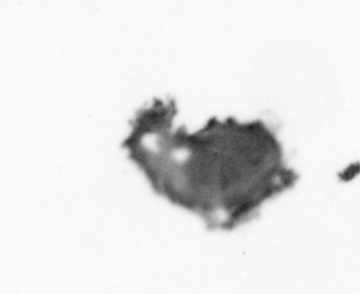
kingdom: Animalia
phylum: Annelida
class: Polychaeta
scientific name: Polychaeta
